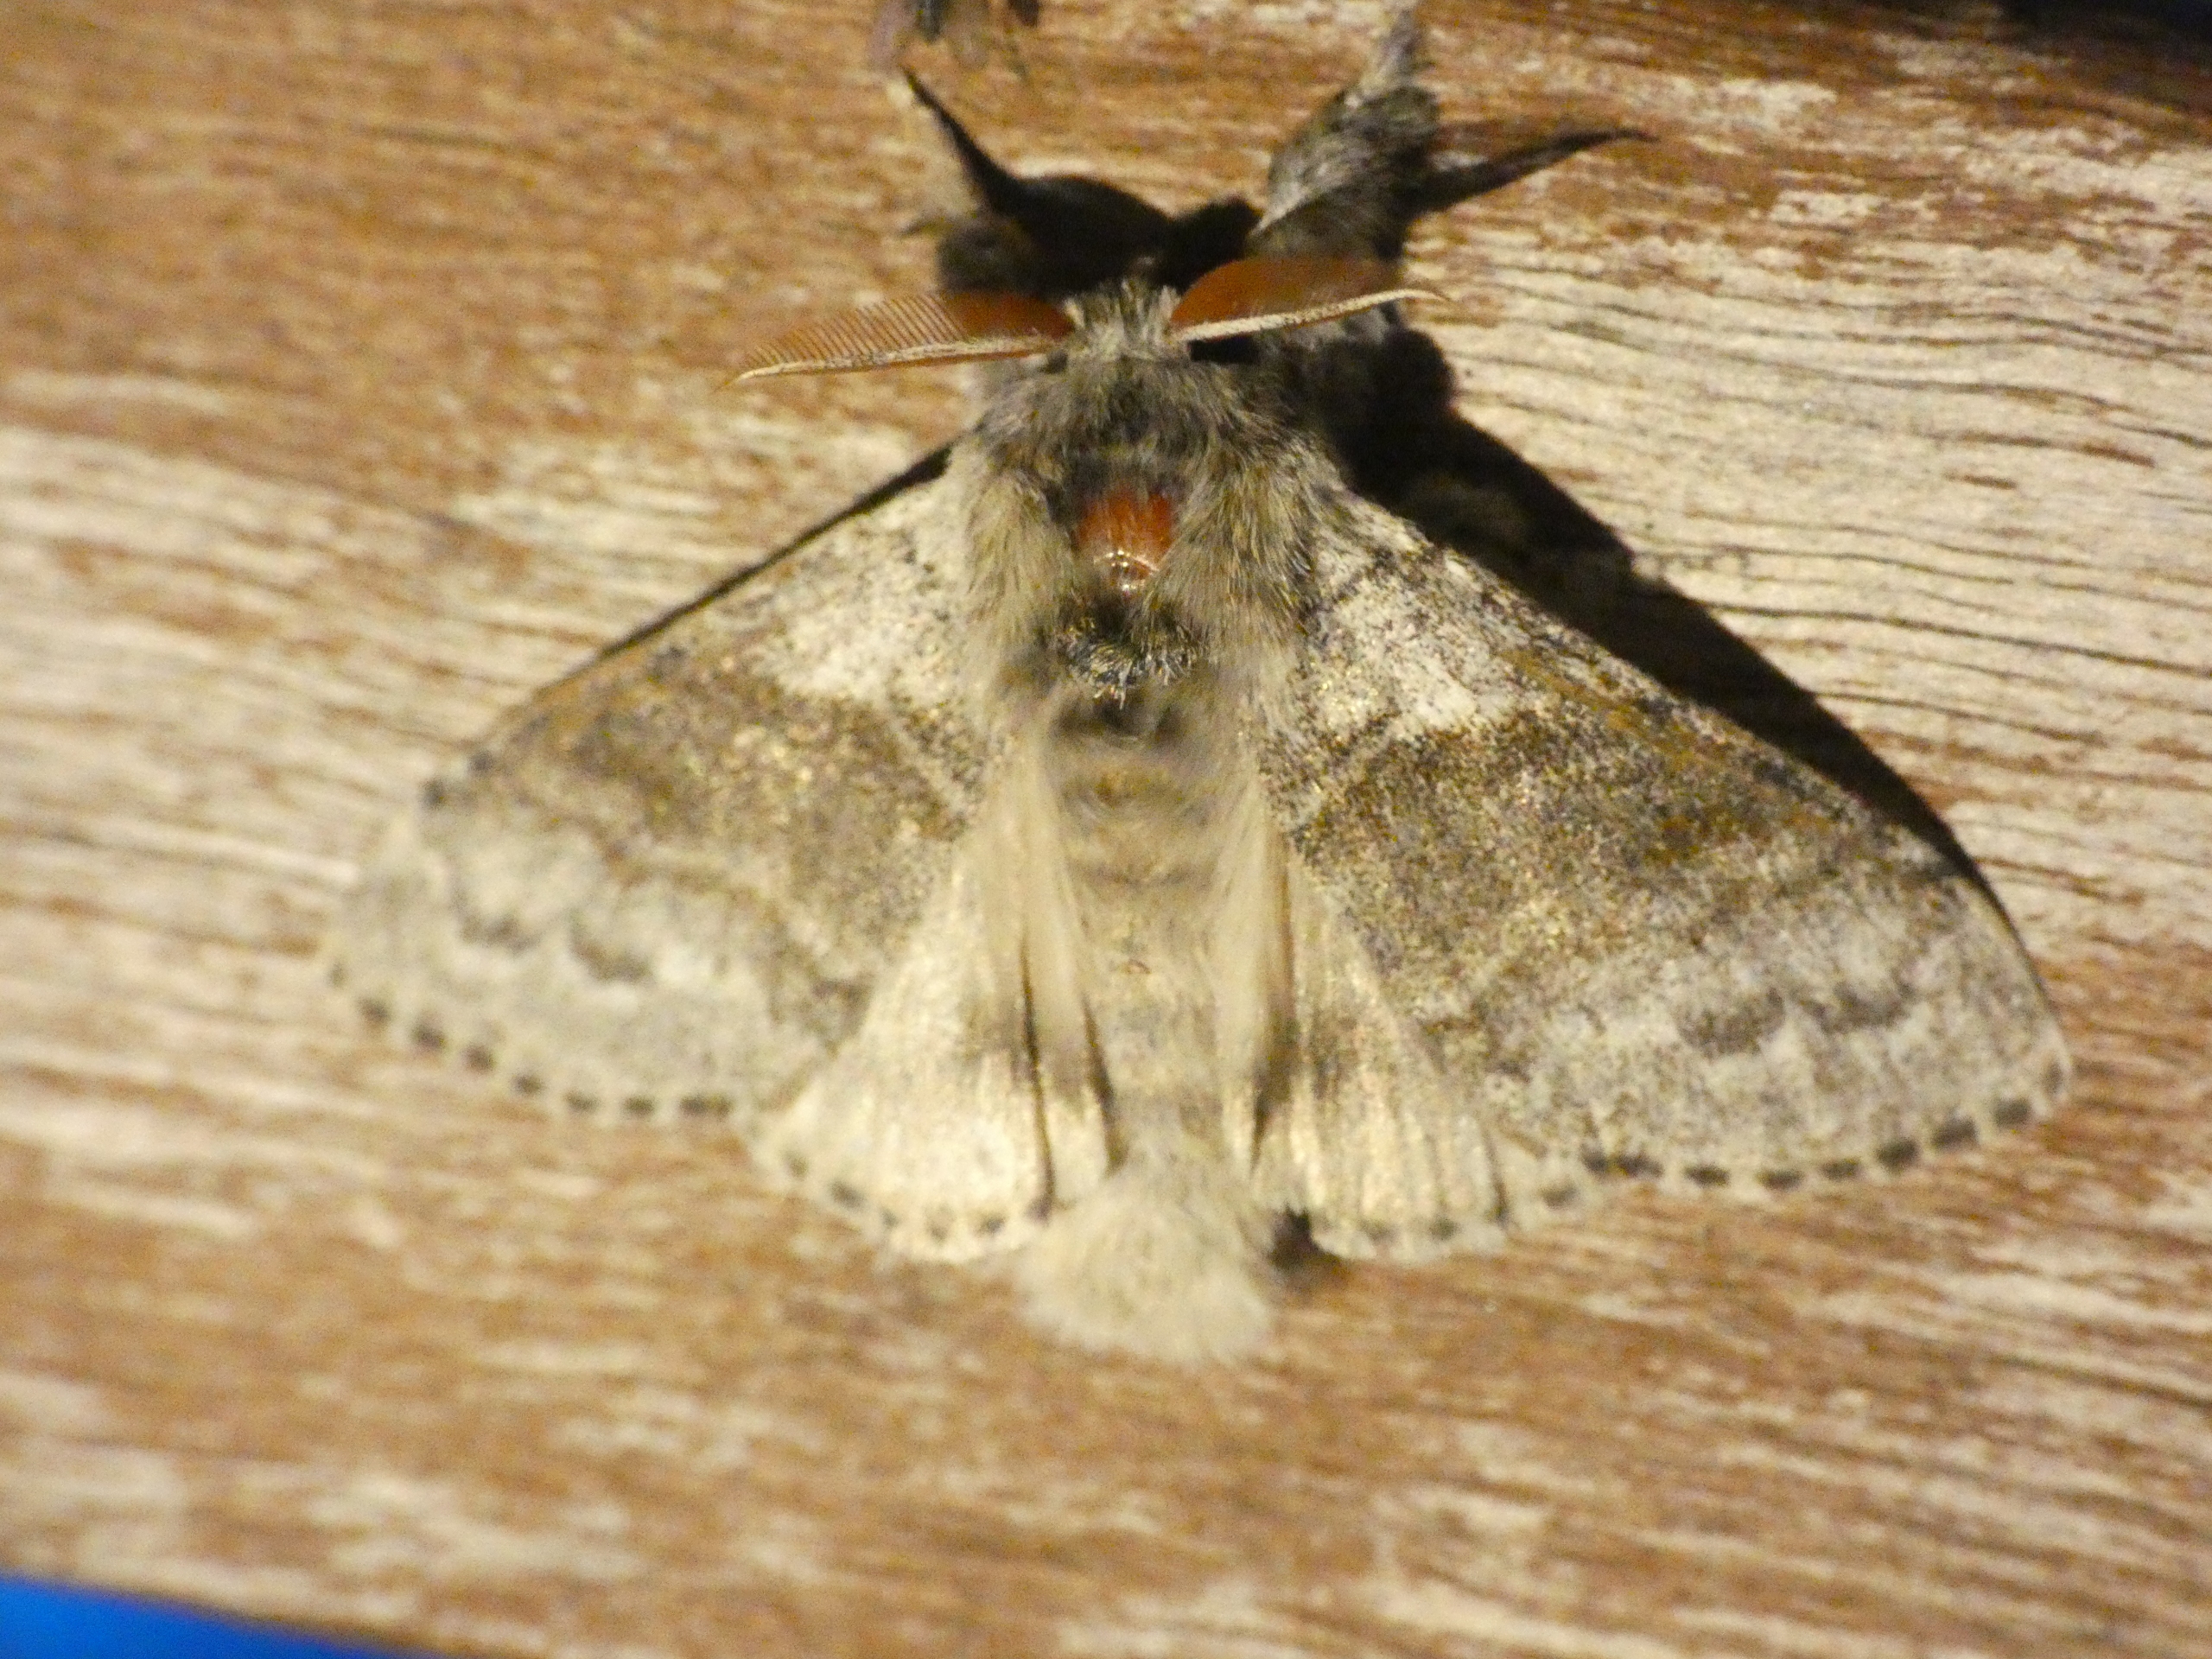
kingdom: Animalia
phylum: Arthropoda
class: Insecta
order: Lepidoptera
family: Erebidae
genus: Calliteara
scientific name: Calliteara pudibunda
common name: Bøgenonne
